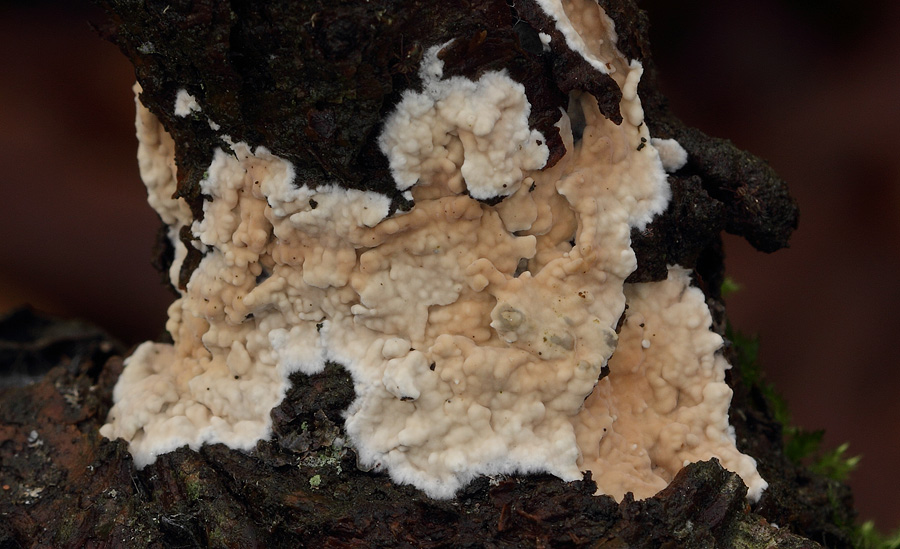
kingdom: Fungi
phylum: Basidiomycota
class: Agaricomycetes
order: Agaricales
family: Physalacriaceae
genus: Cylindrobasidium
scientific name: Cylindrobasidium evolvens
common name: sprækkehinde
